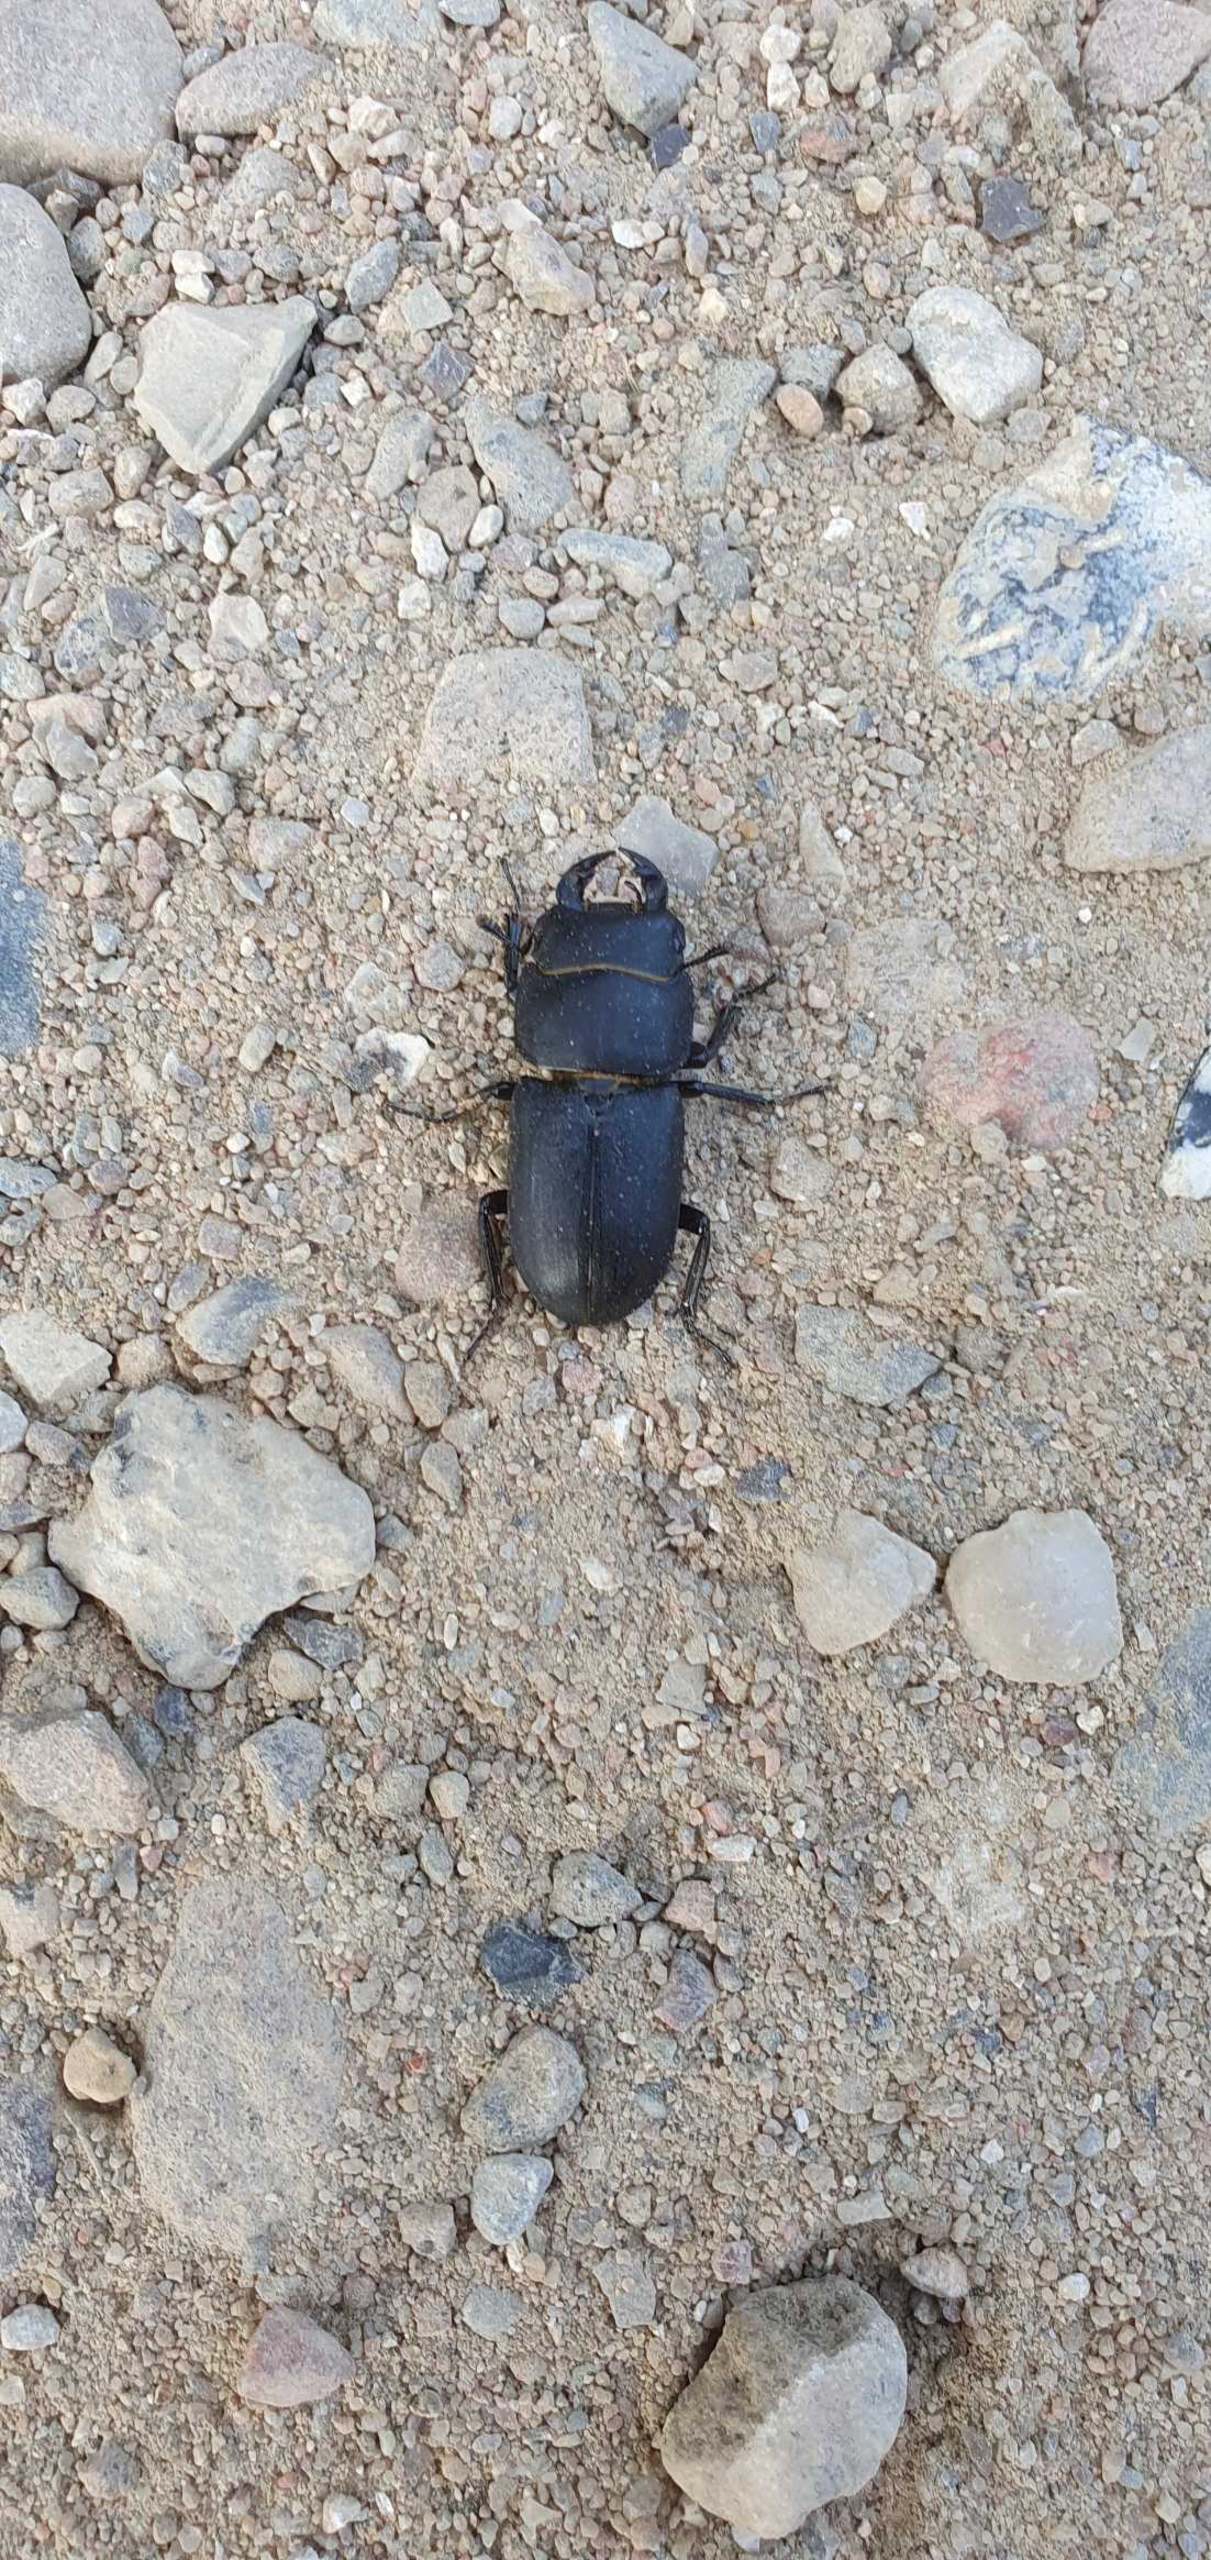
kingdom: Animalia
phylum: Arthropoda
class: Insecta
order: Coleoptera
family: Lucanidae
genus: Dorcus
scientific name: Dorcus parallelipipedus
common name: Bøghjort
